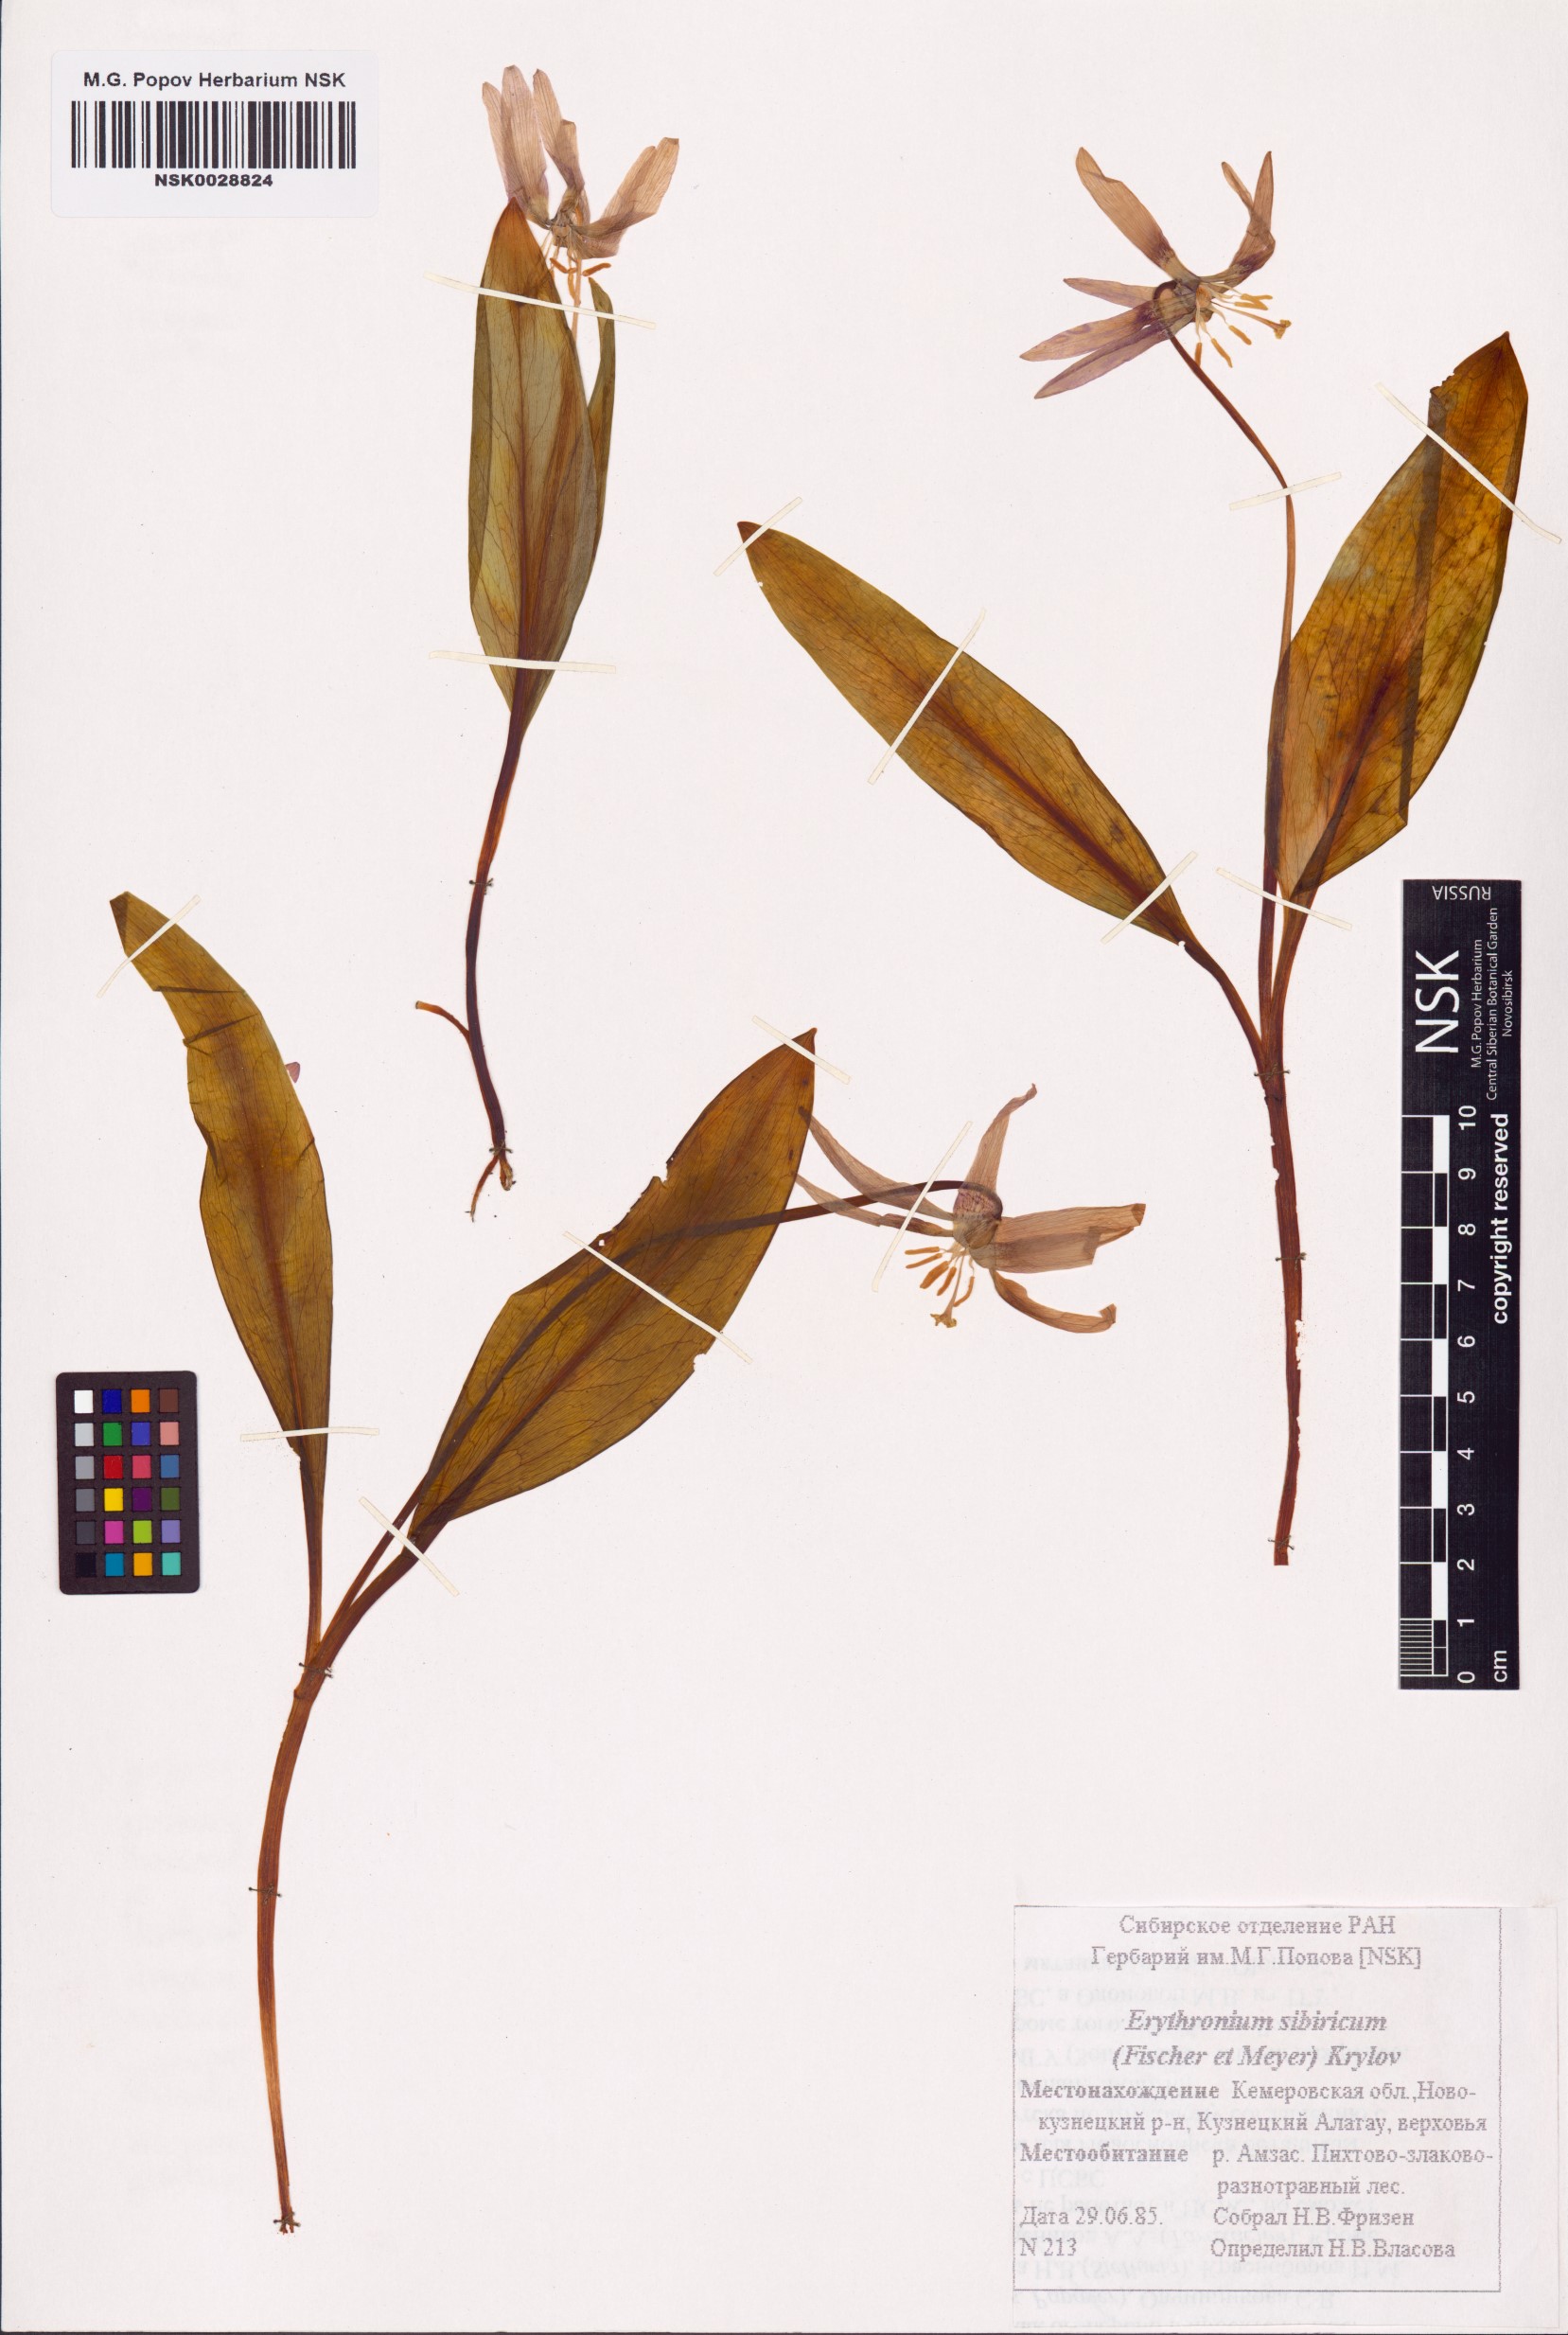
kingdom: Plantae
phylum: Tracheophyta
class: Liliopsida
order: Liliales
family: Liliaceae
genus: Erythronium
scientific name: Erythronium sibiricum
